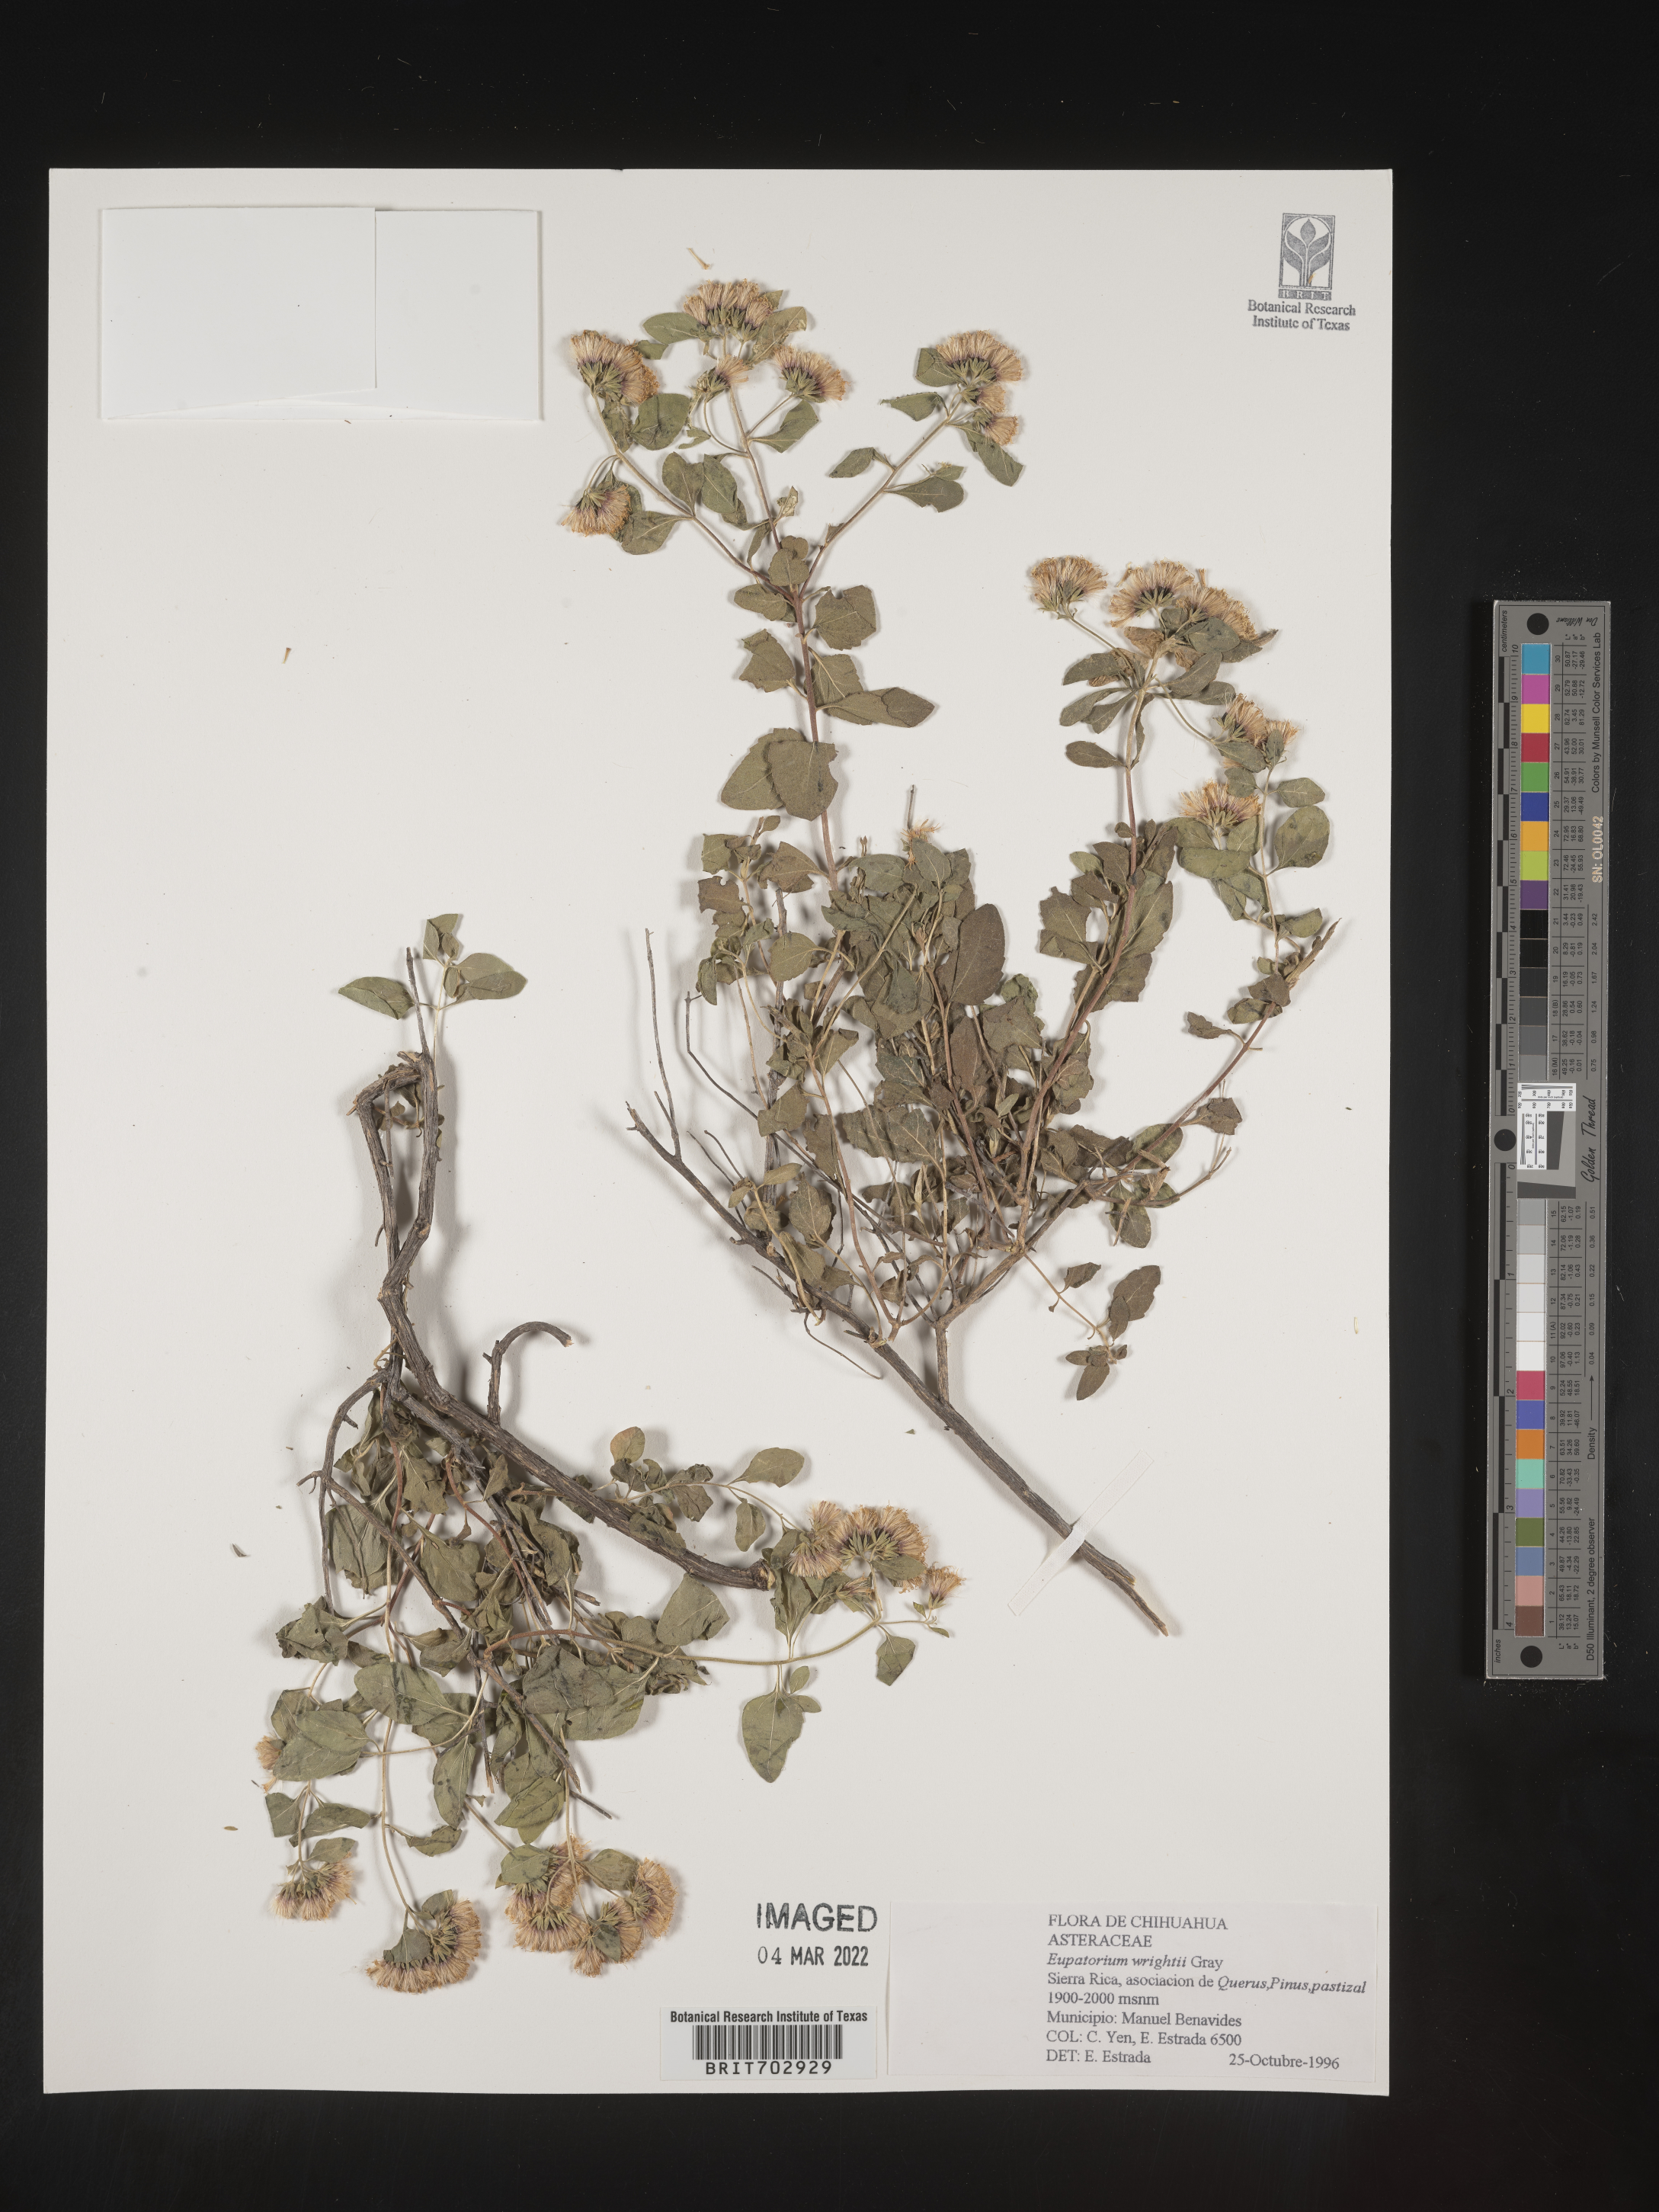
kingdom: Plantae
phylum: Tracheophyta
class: Magnoliopsida
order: Asterales
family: Asteraceae
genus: Eupatorium
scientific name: Eupatorium
